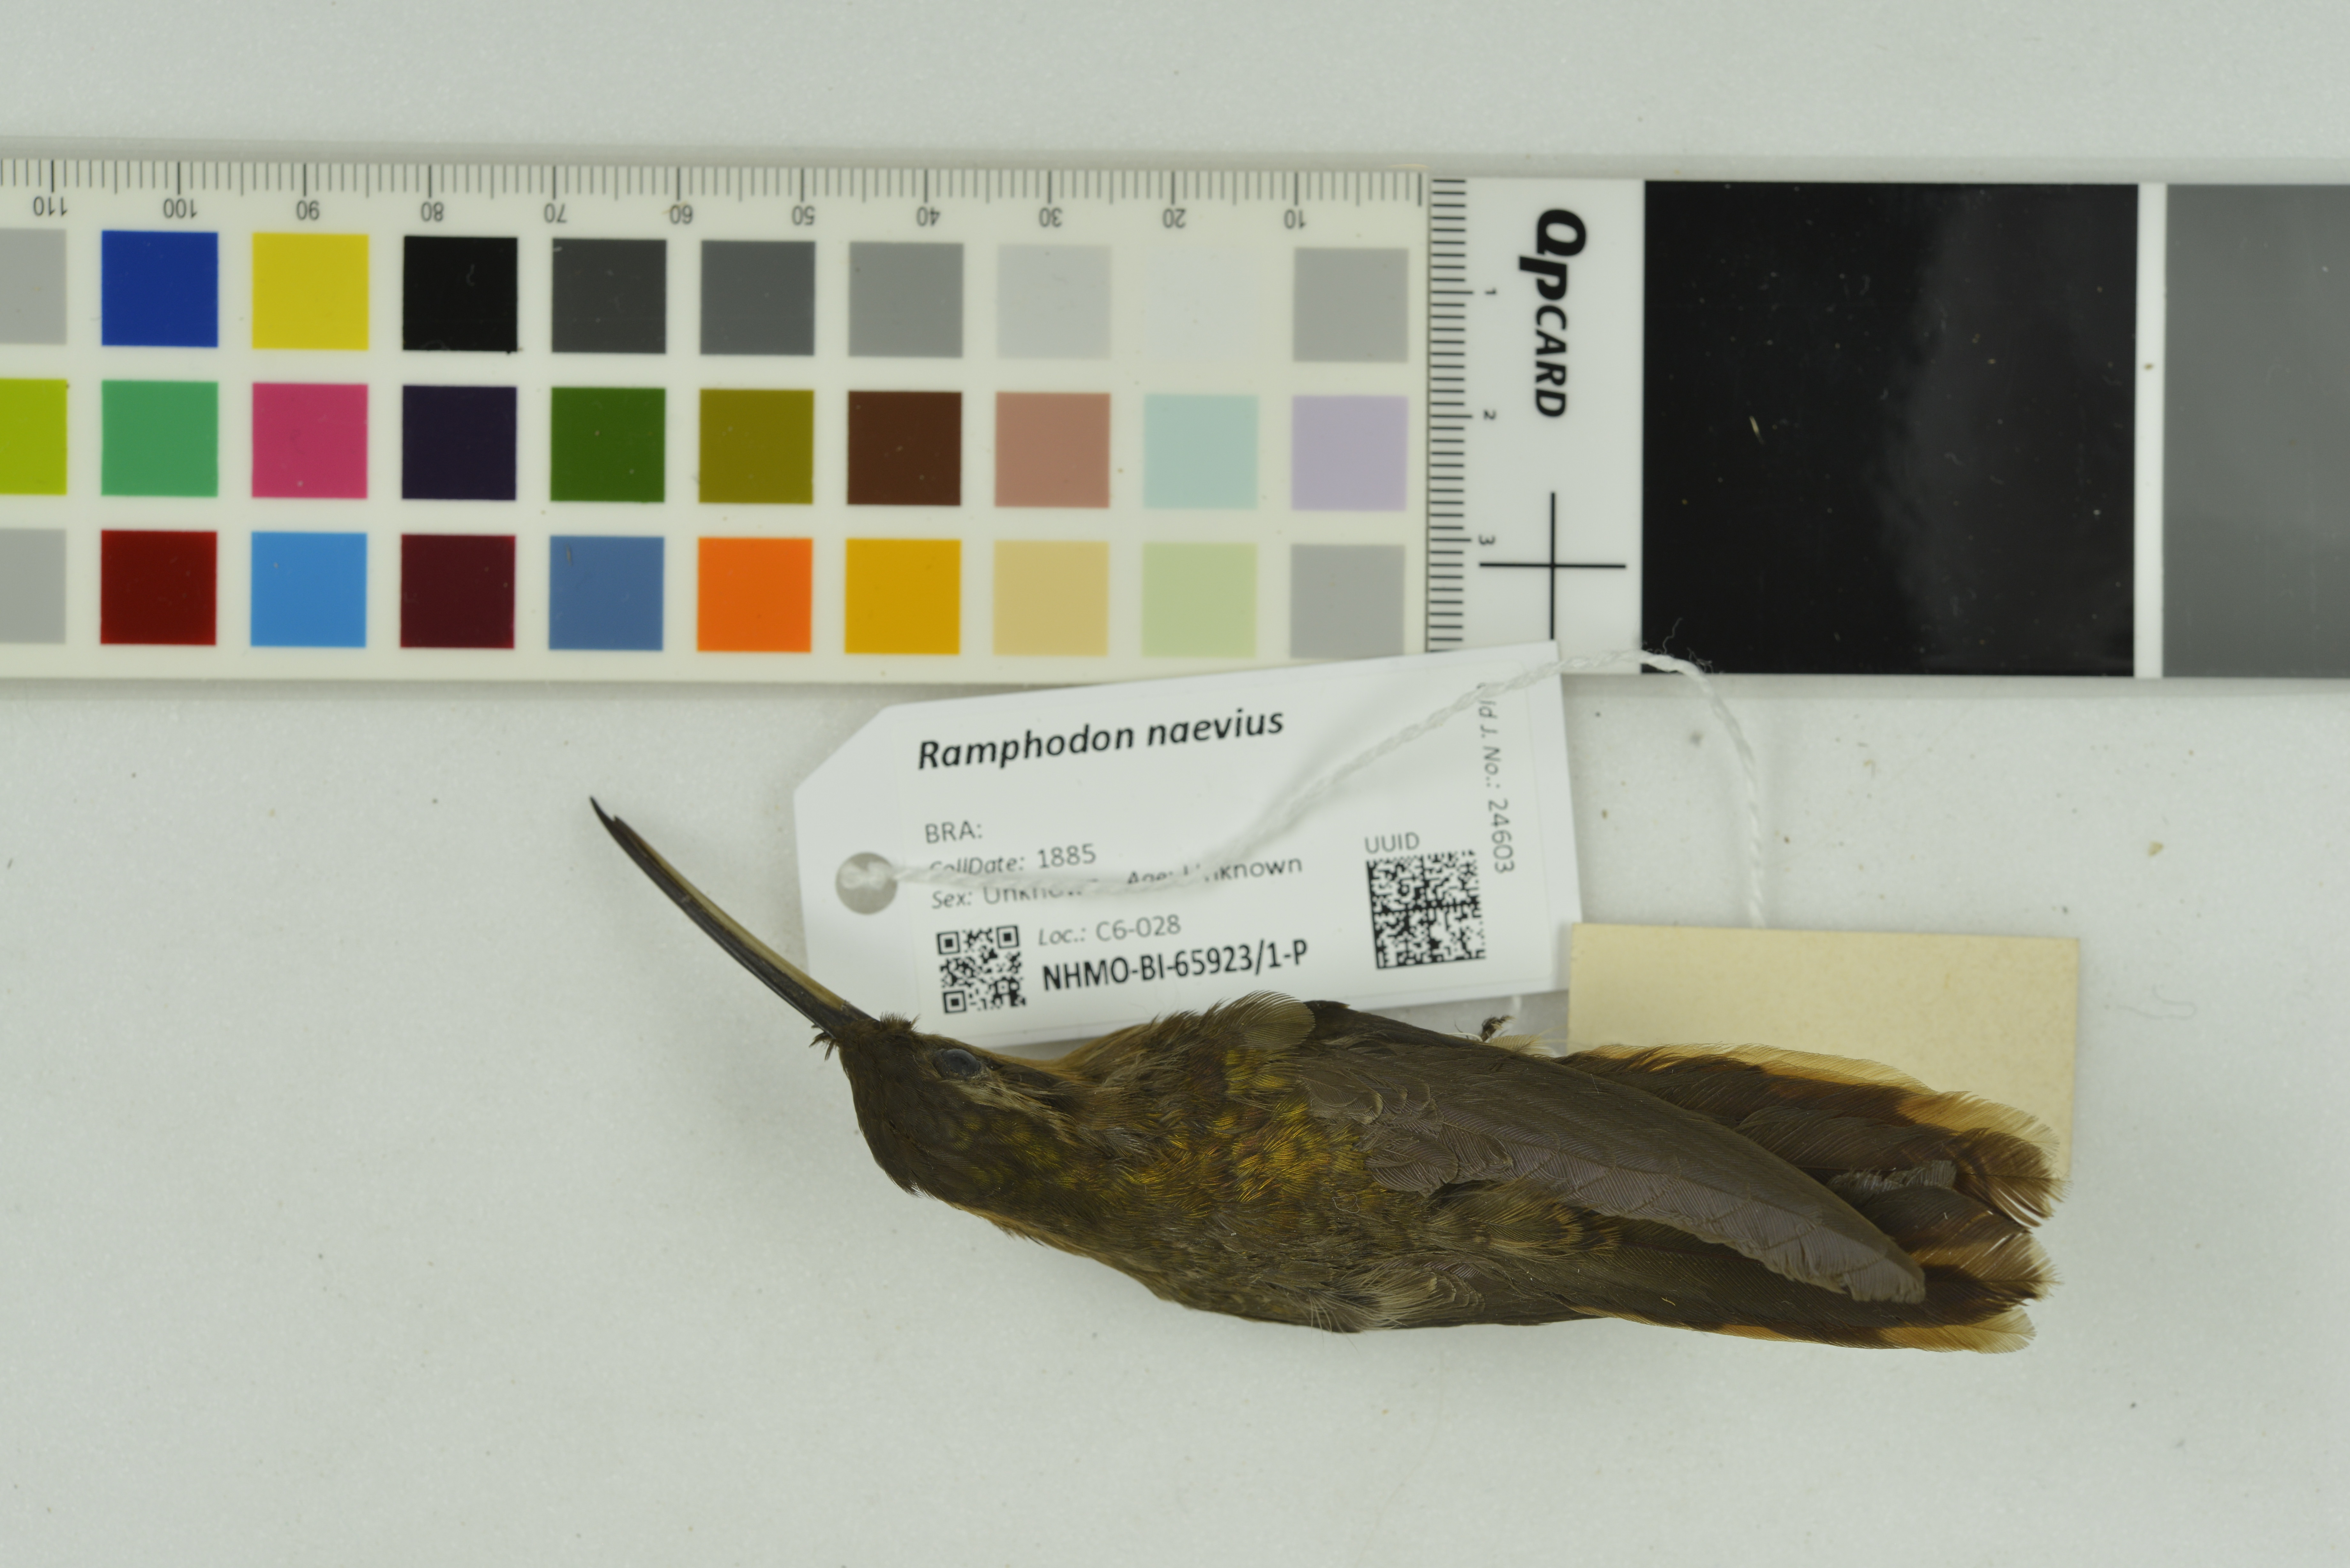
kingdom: Animalia
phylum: Chordata
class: Aves
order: Apodiformes
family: Trochilidae
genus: Ramphodon
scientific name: Ramphodon naevius
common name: Saw-billed hermit
